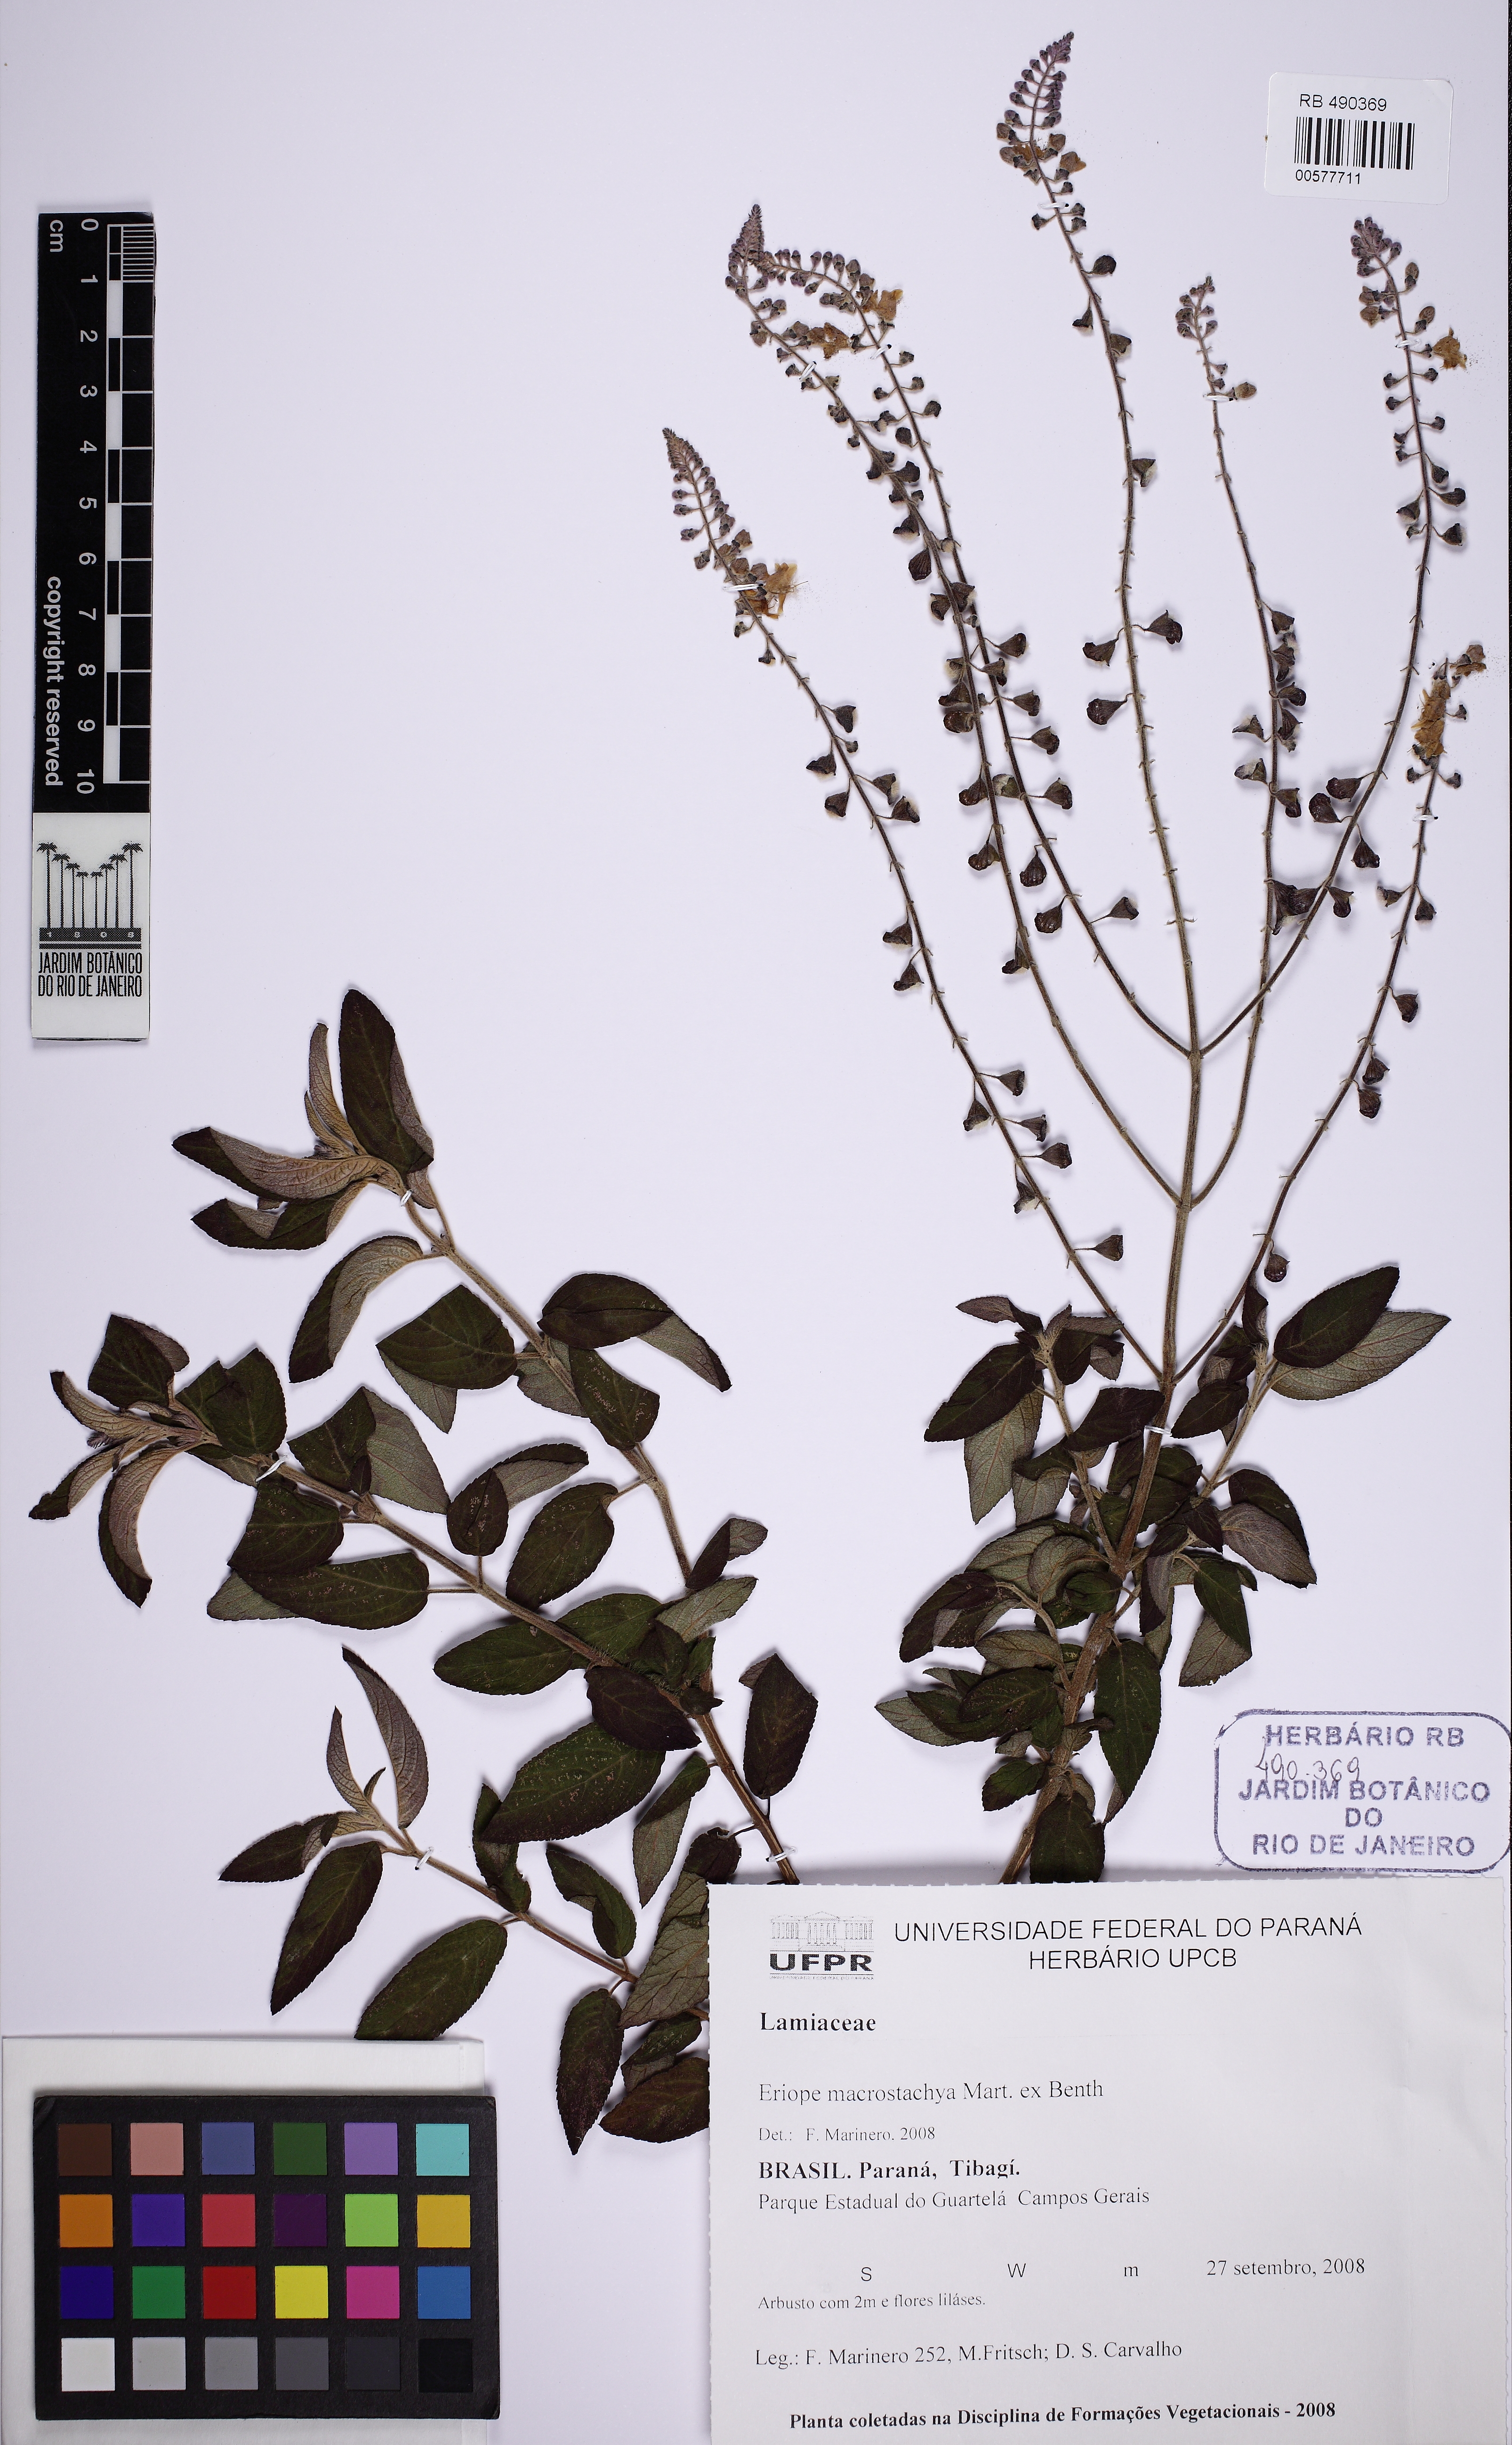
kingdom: Plantae
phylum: Tracheophyta
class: Magnoliopsida
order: Lamiales
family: Lamiaceae
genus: Eriope
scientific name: Eriope macrostachya
